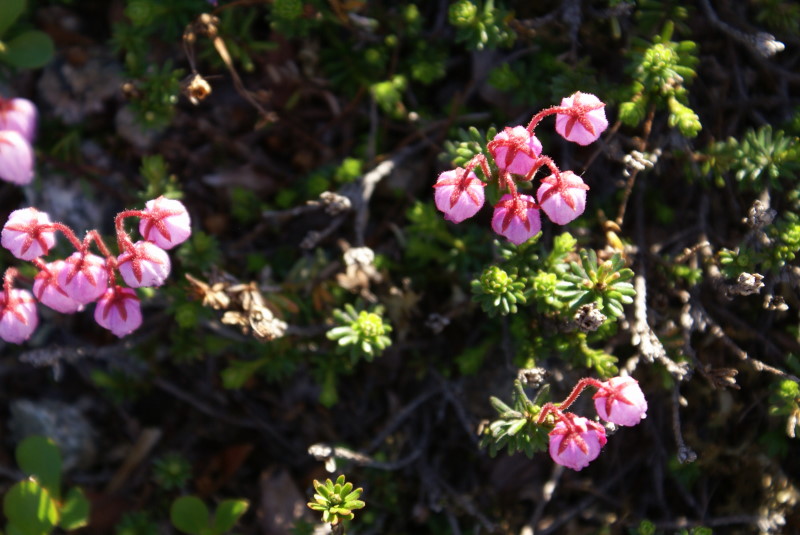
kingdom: Plantae
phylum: Tracheophyta
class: Magnoliopsida
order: Ericales
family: Ericaceae
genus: Andromeda
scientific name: Andromeda polifolia
